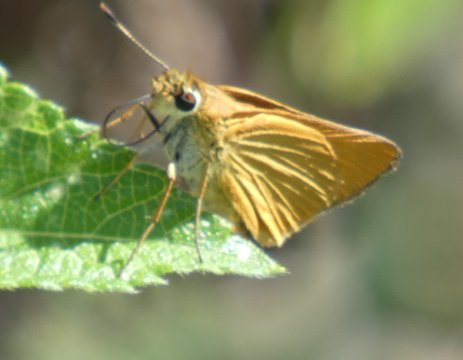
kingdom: Animalia
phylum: Arthropoda
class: Insecta
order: Lepidoptera
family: Hesperiidae
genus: Atrytone
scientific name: Atrytone delaware
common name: Delaware Skipper
